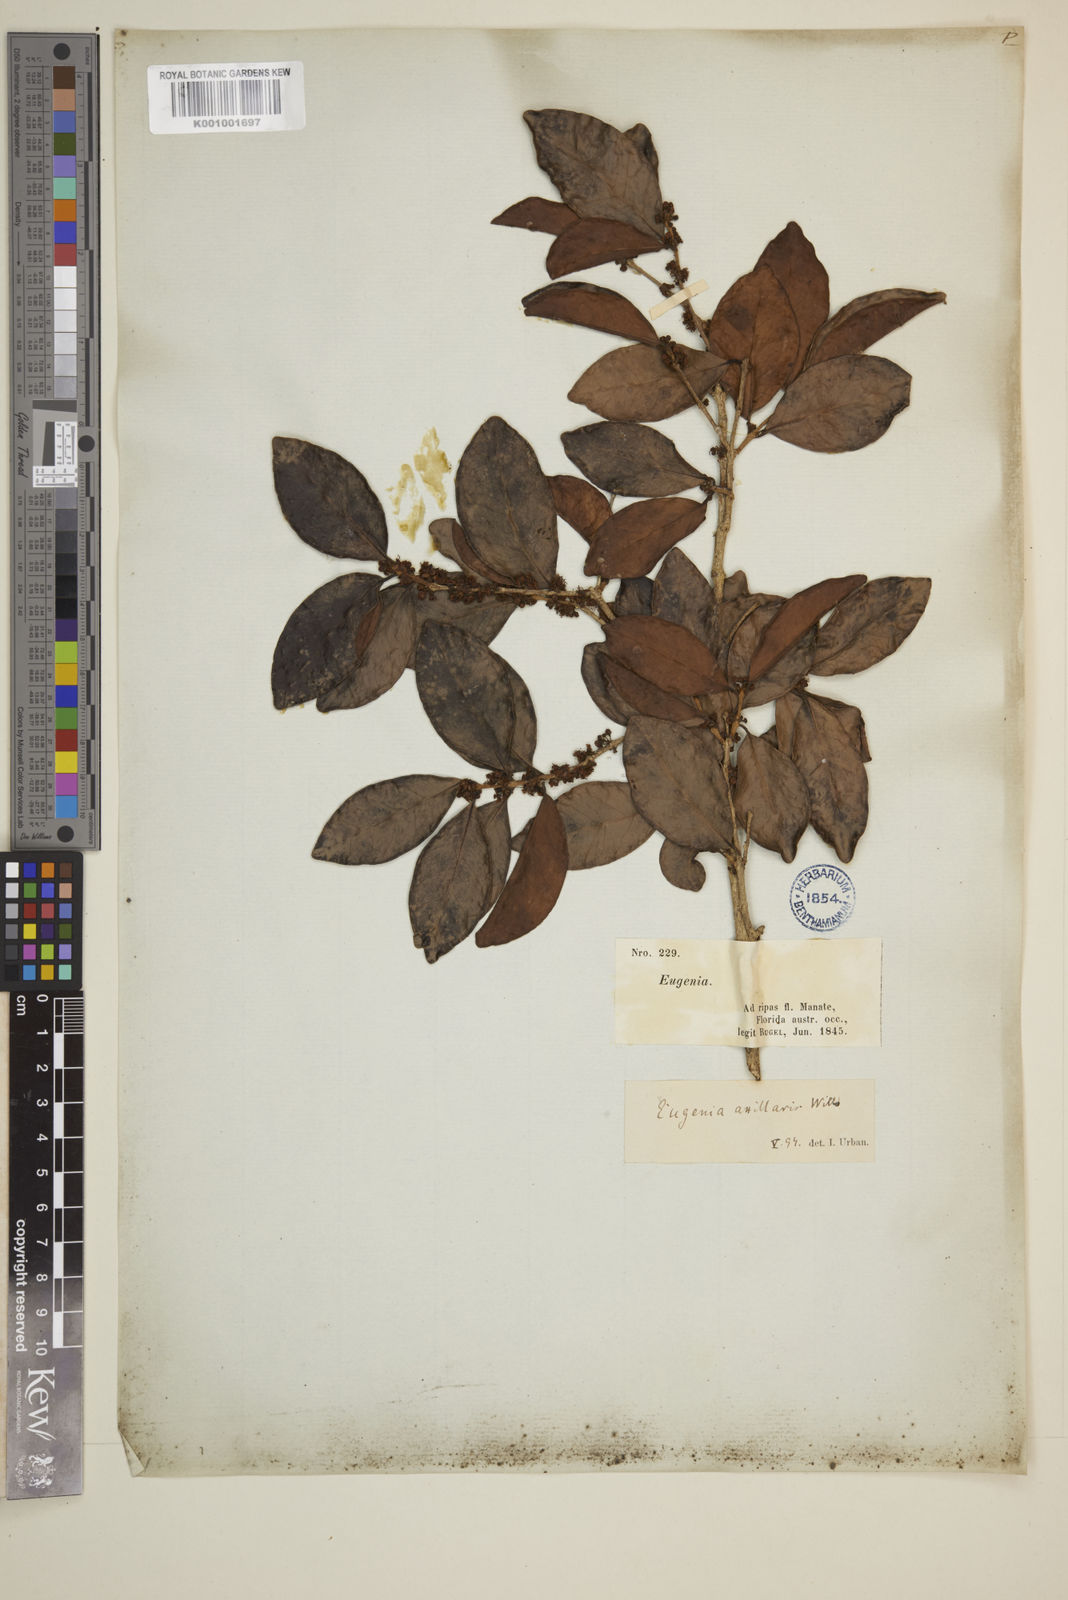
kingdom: Plantae
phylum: Tracheophyta
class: Magnoliopsida
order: Myrtales
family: Myrtaceae
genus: Eugenia
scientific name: Eugenia axillaris
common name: Choaky berry
